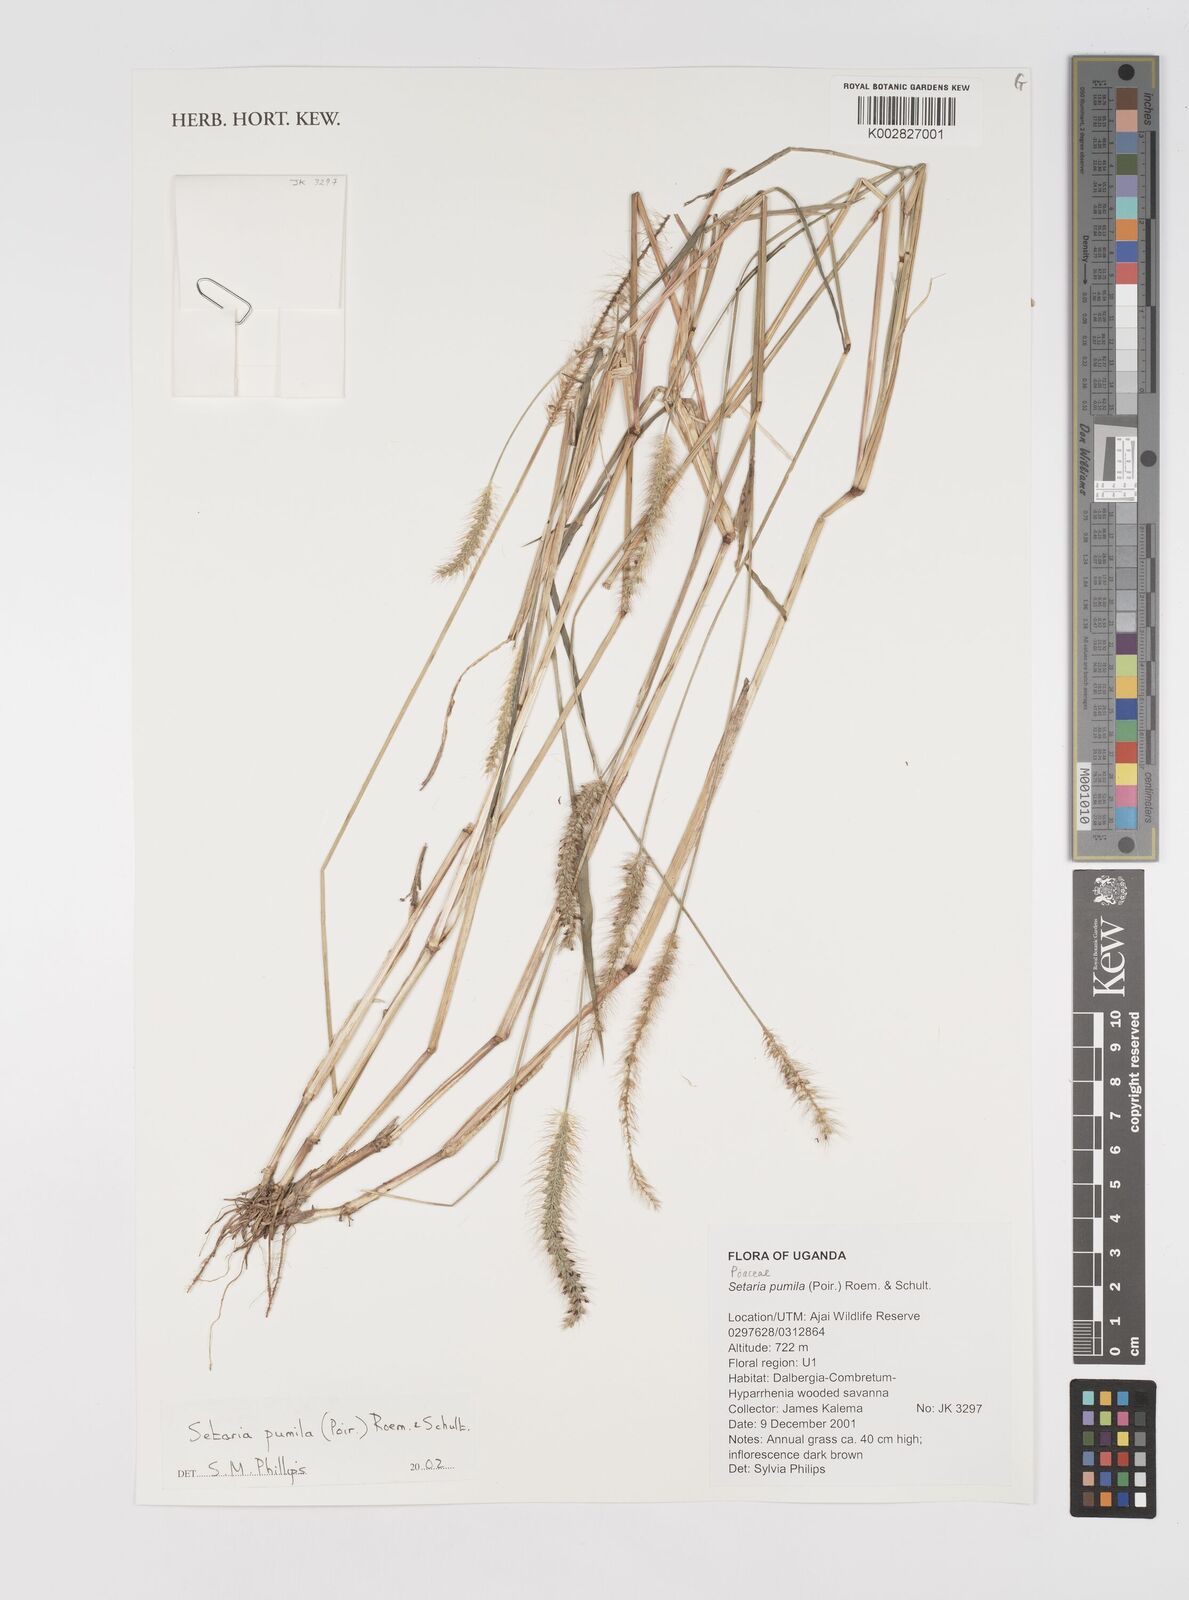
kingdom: Plantae
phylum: Tracheophyta
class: Liliopsida
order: Poales
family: Poaceae
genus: Setaria
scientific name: Setaria pumila
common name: Yellow bristle-grass
